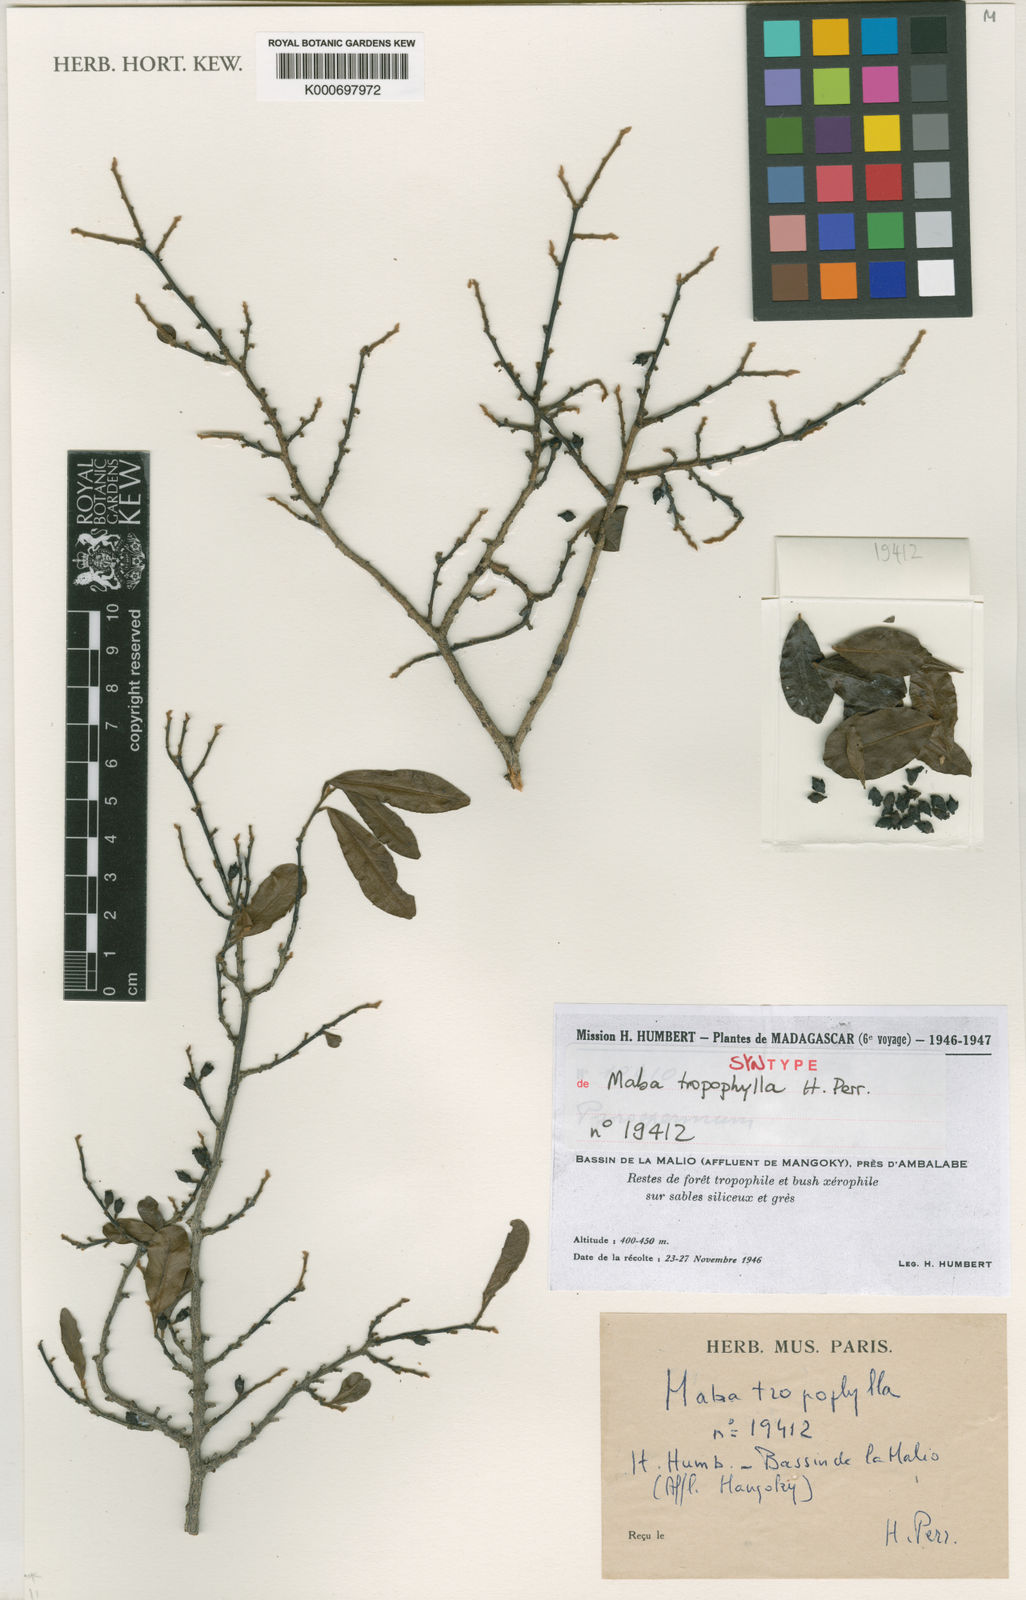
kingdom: Plantae
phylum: Tracheophyta
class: Magnoliopsida
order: Ericales
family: Ebenaceae
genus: Diospyros
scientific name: Diospyros tropophylla
